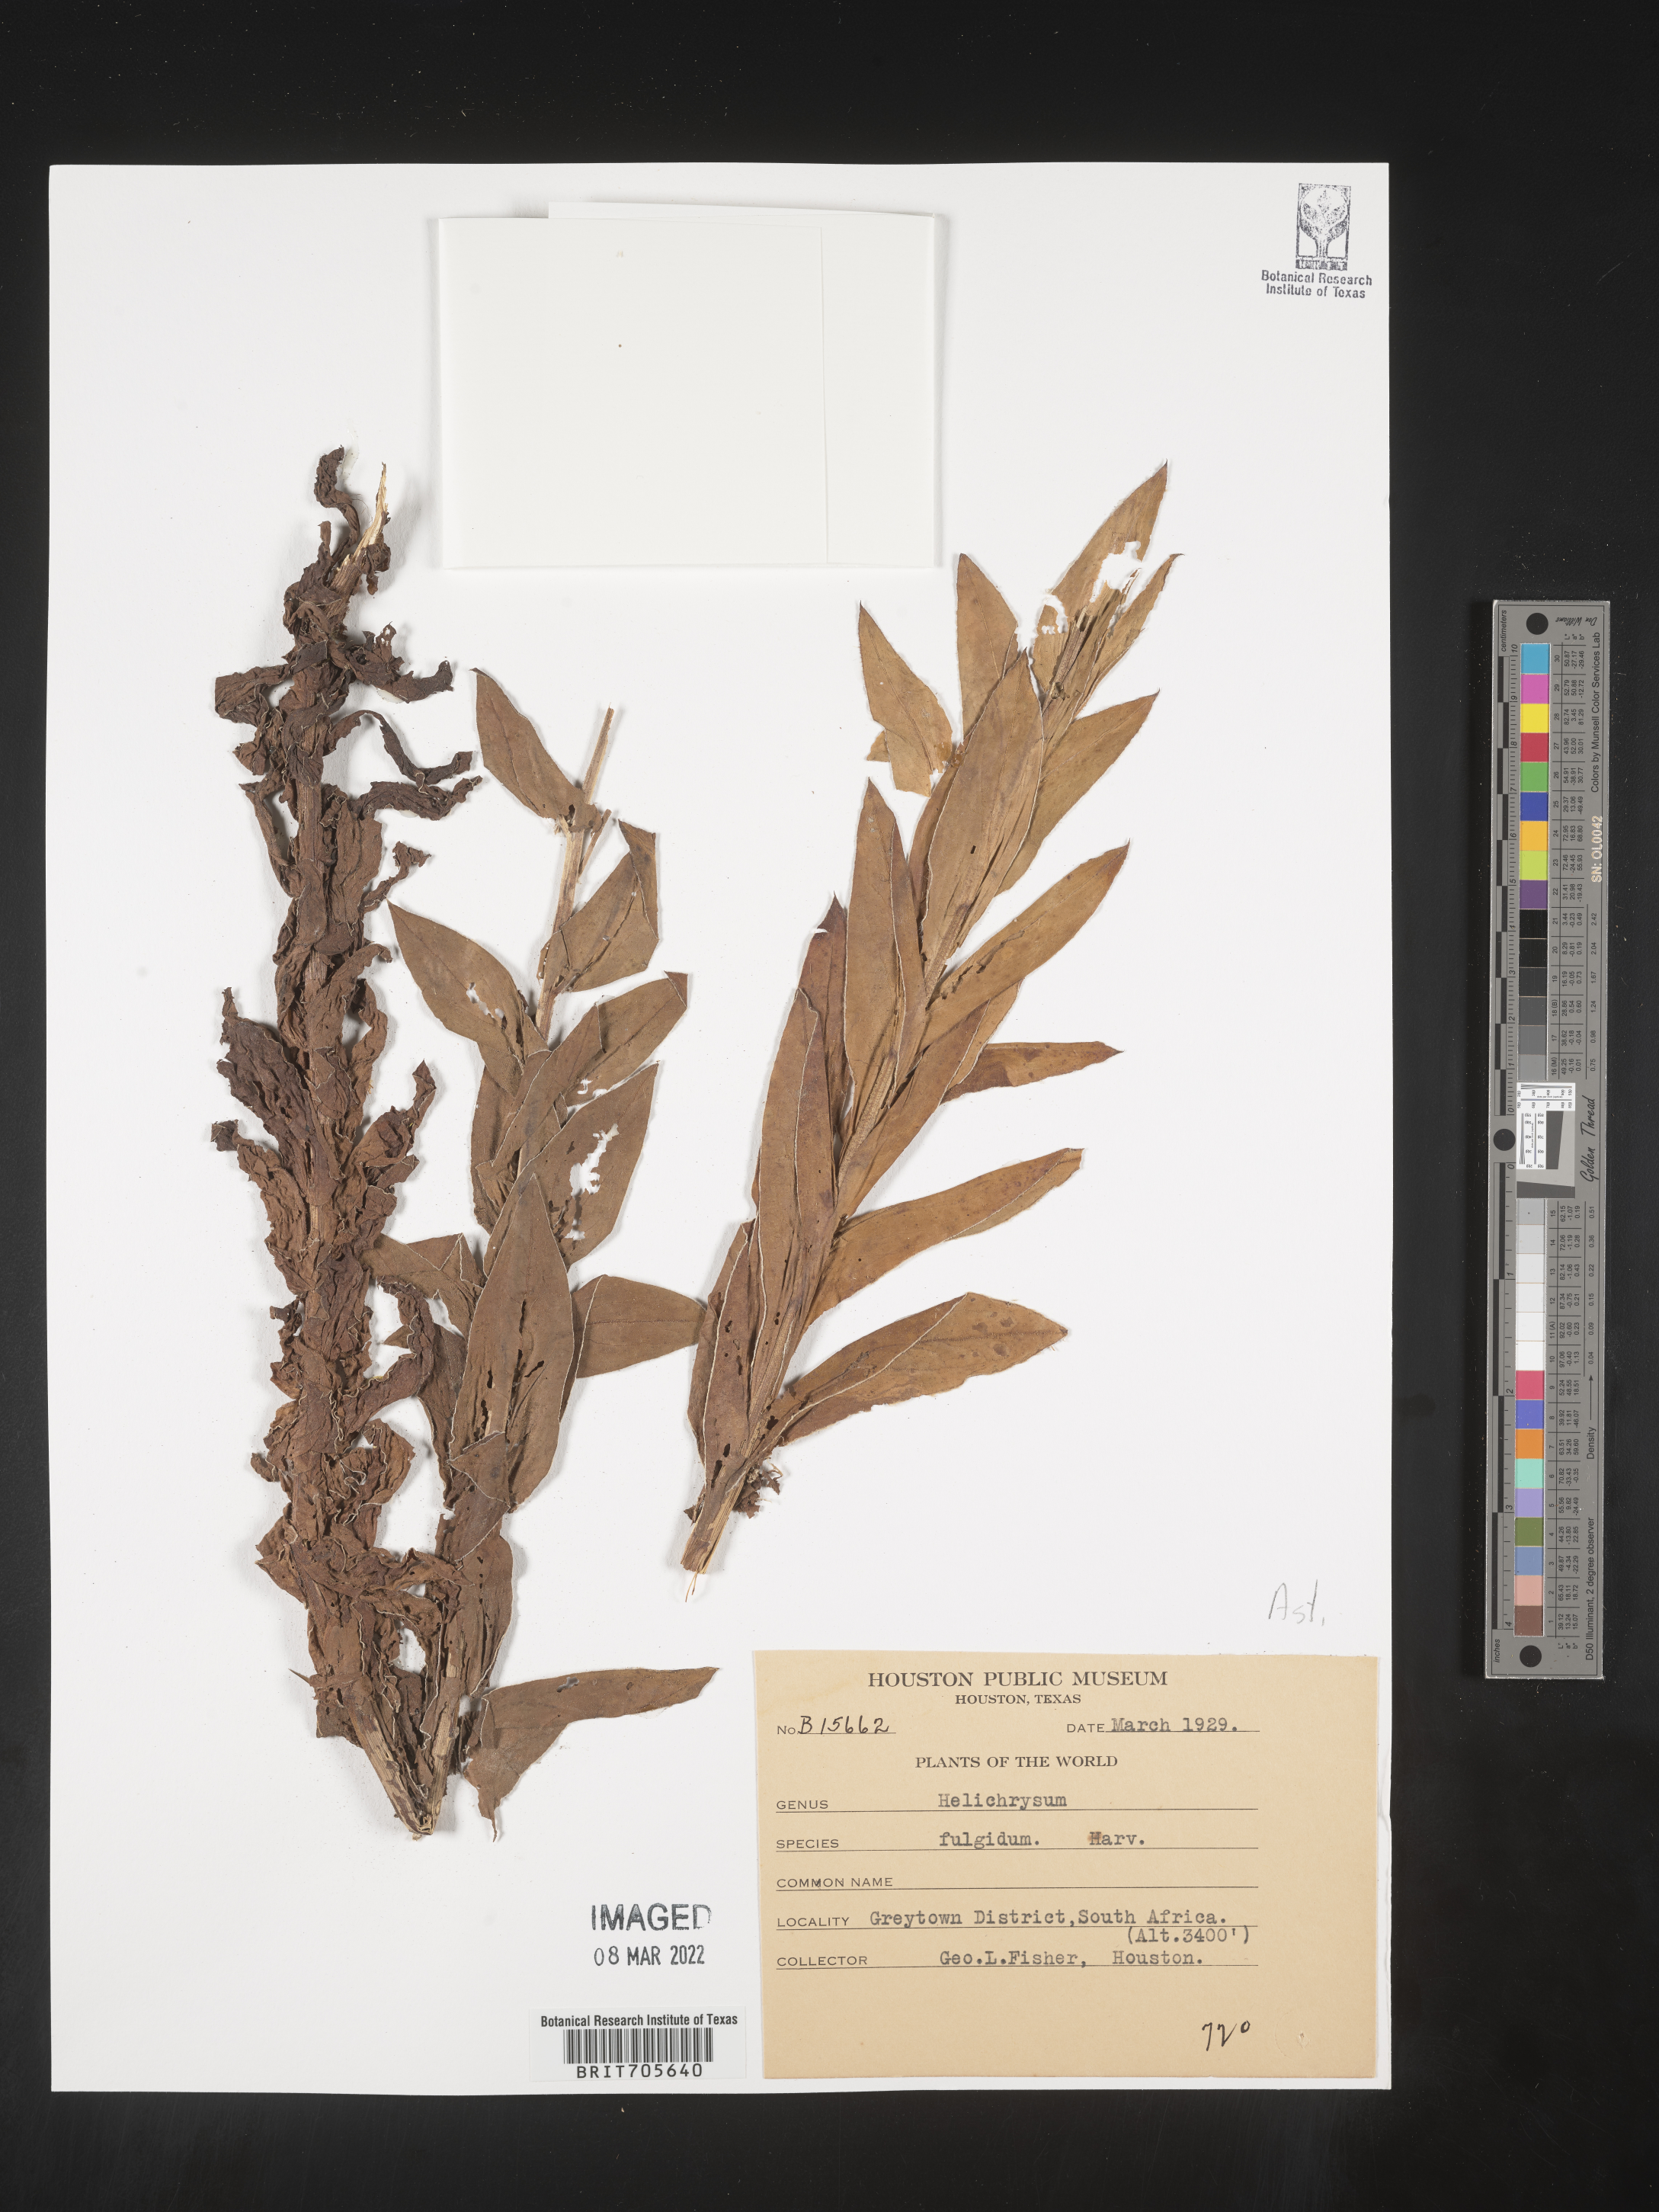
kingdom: Plantae
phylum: Tracheophyta
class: Magnoliopsida
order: Asterales
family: Asteraceae
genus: Helichrysum
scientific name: Helichrysum
